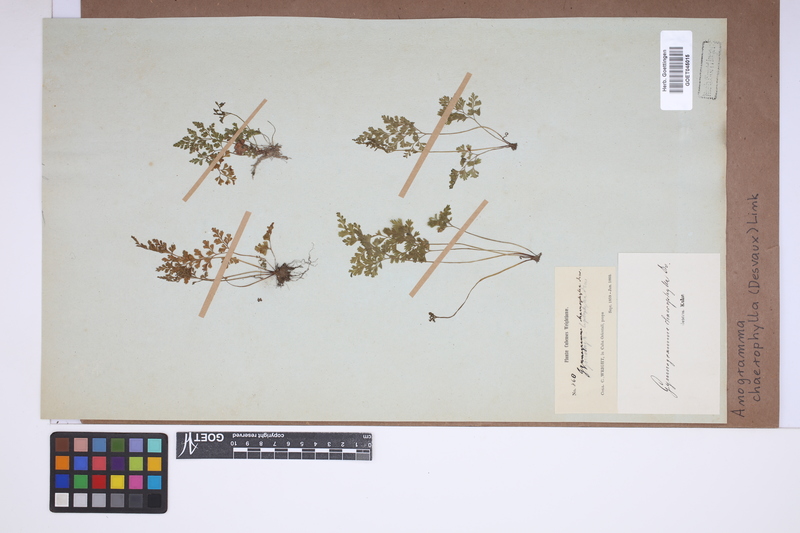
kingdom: Plantae
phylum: Tracheophyta
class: Polypodiopsida
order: Polypodiales
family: Pteridaceae
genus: Gastoniella
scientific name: Gastoniella chaerophylla
